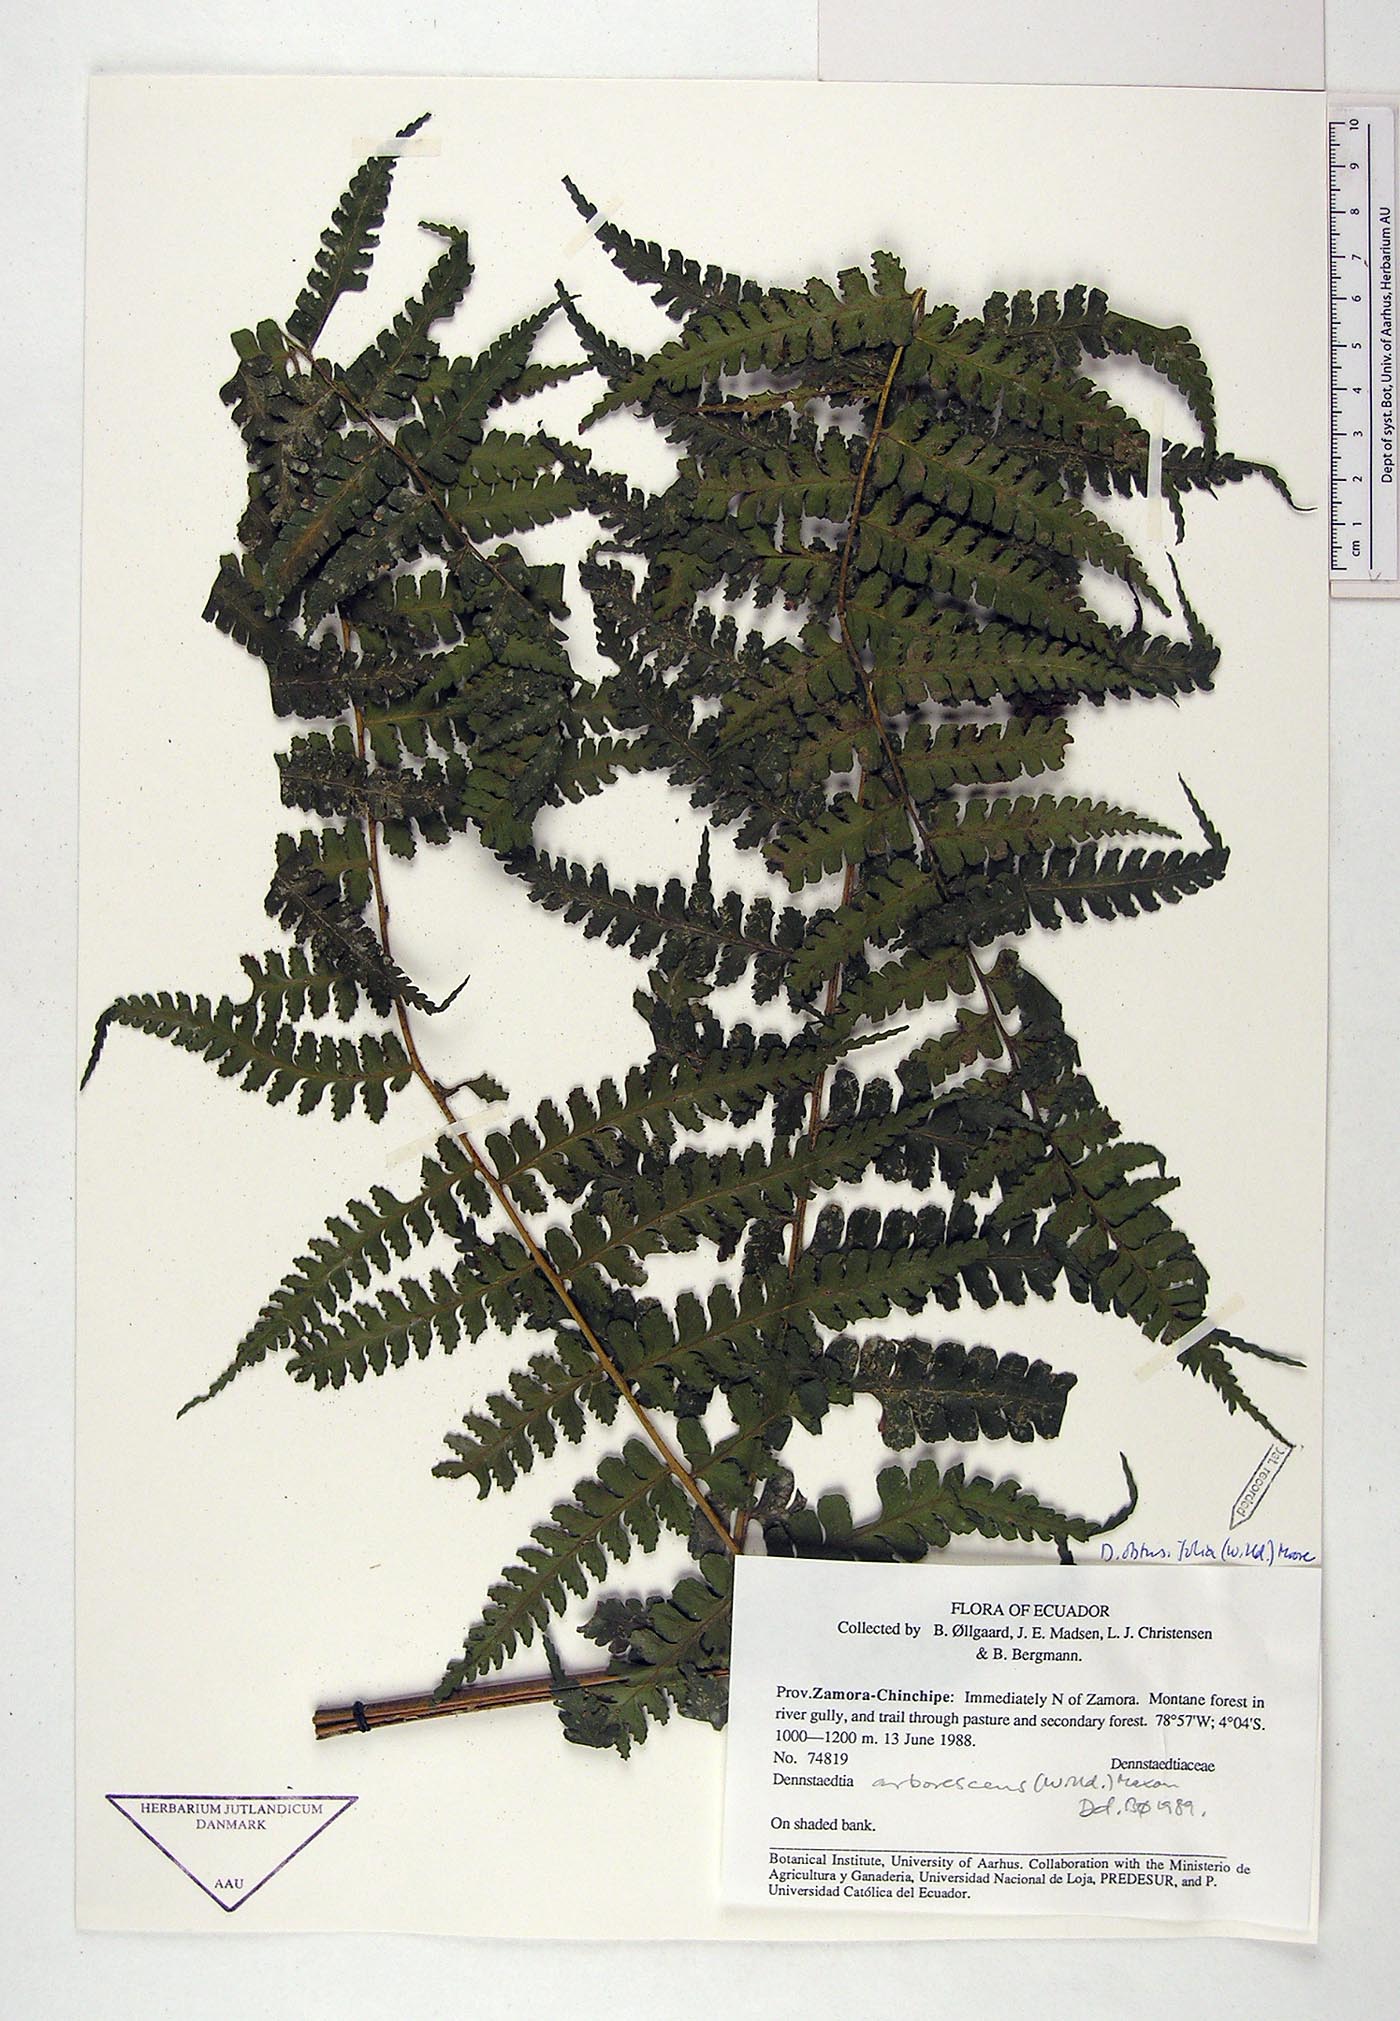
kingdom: Plantae
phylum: Tracheophyta
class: Polypodiopsida
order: Polypodiales
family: Dennstaedtiaceae
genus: Dennstaedtia
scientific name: Dennstaedtia obtusifolia
